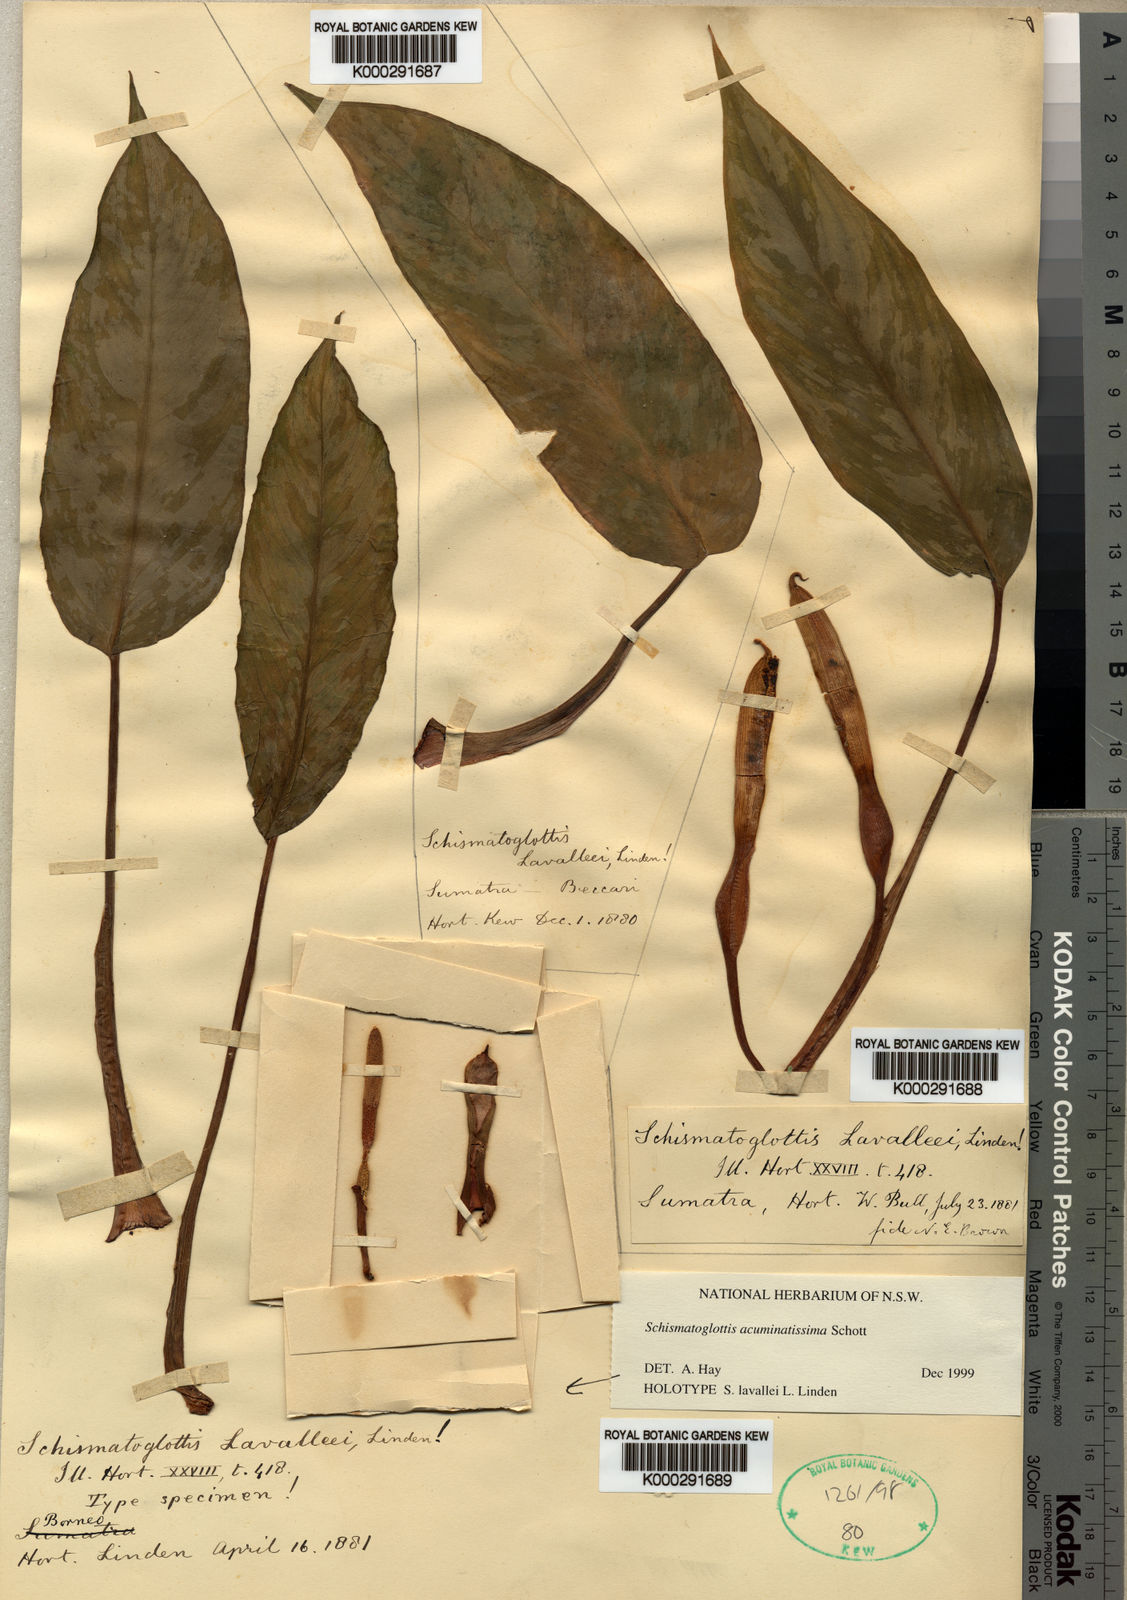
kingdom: Plantae
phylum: Tracheophyta
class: Liliopsida
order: Alismatales
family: Araceae
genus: Apoballis
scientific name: Apoballis acuminatissima
